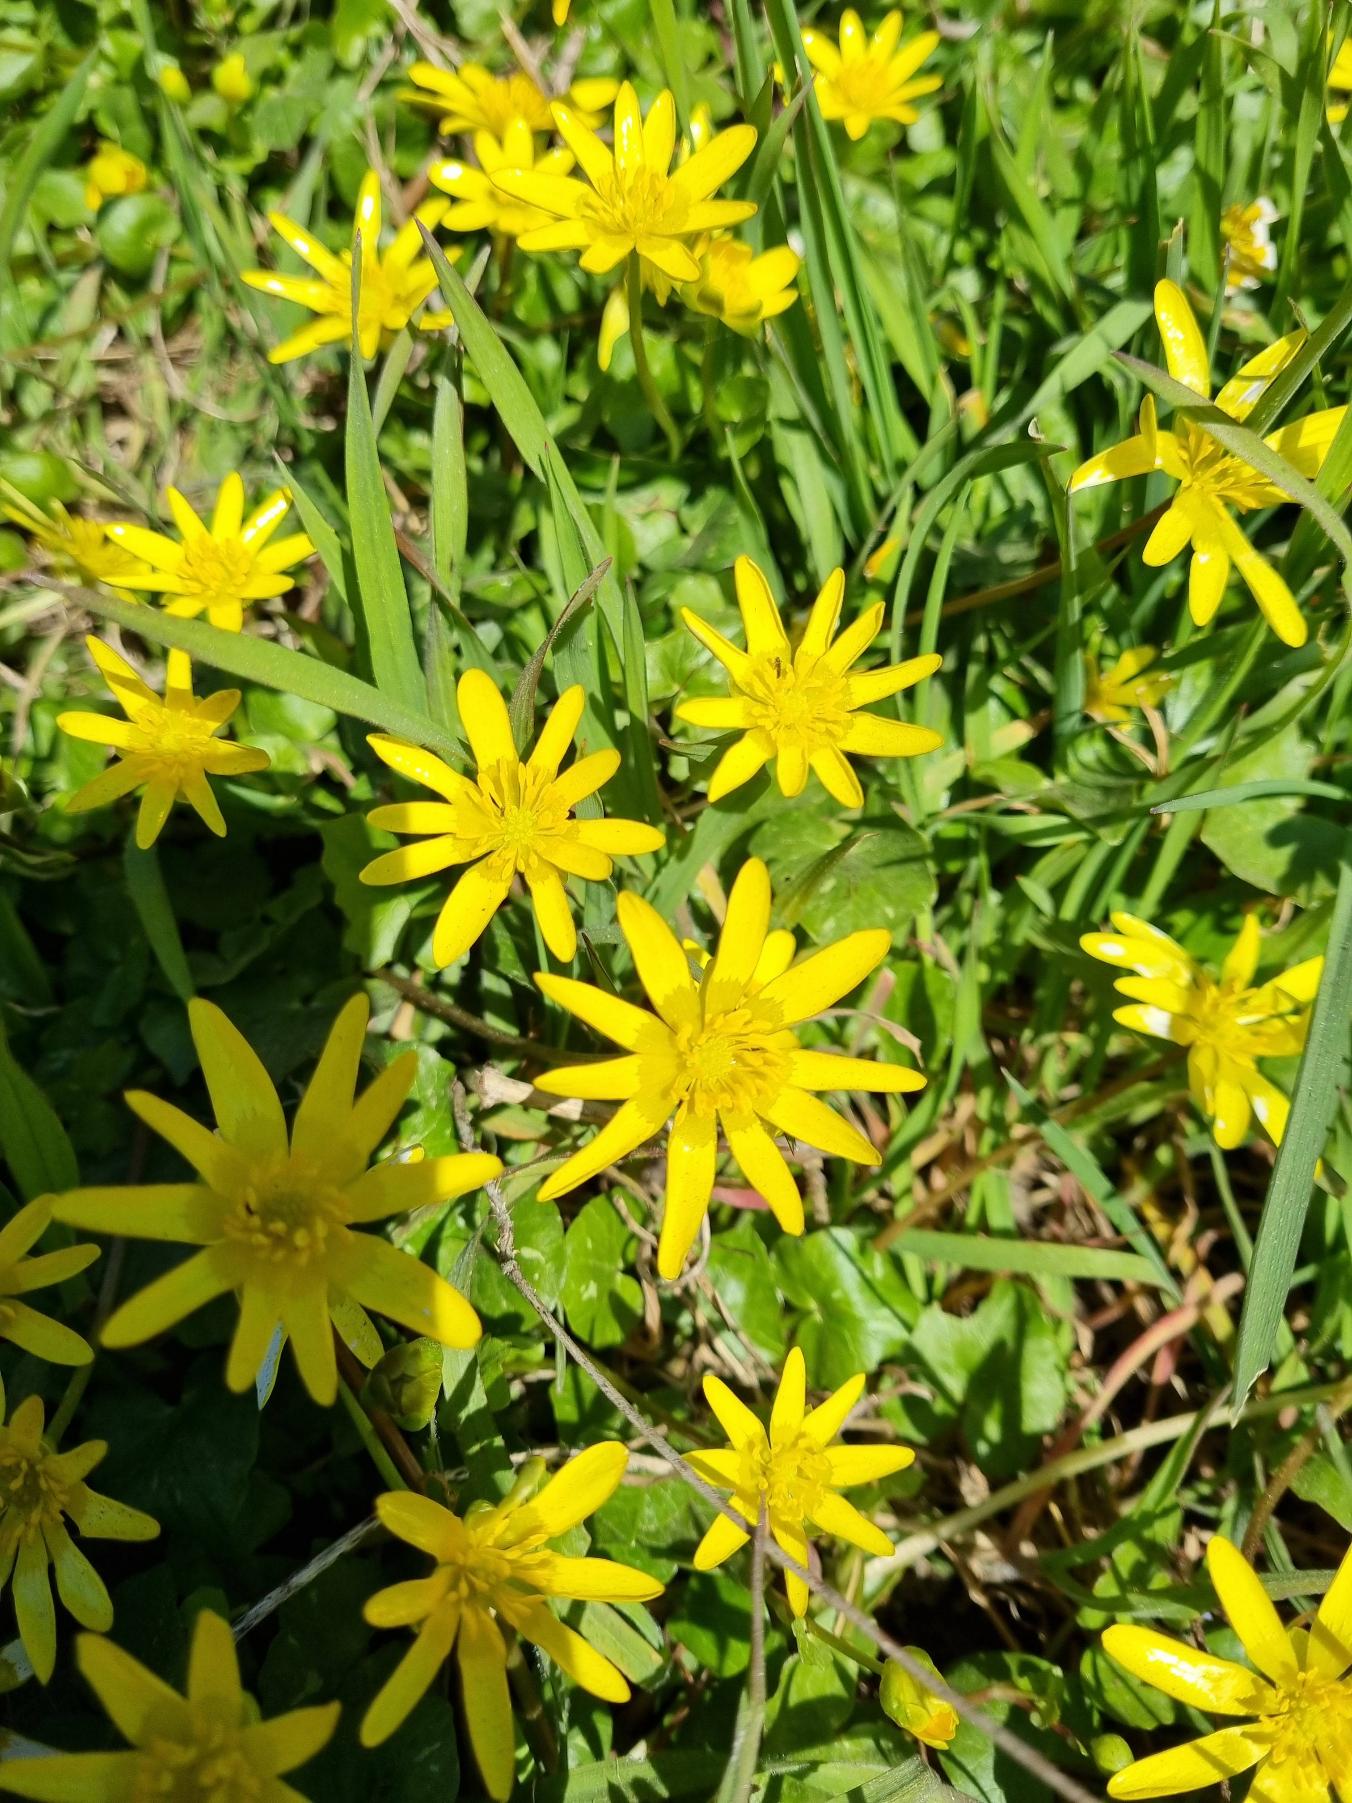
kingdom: Plantae
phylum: Tracheophyta
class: Magnoliopsida
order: Ranunculales
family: Ranunculaceae
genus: Ficaria
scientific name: Ficaria verna
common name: Vorterod
